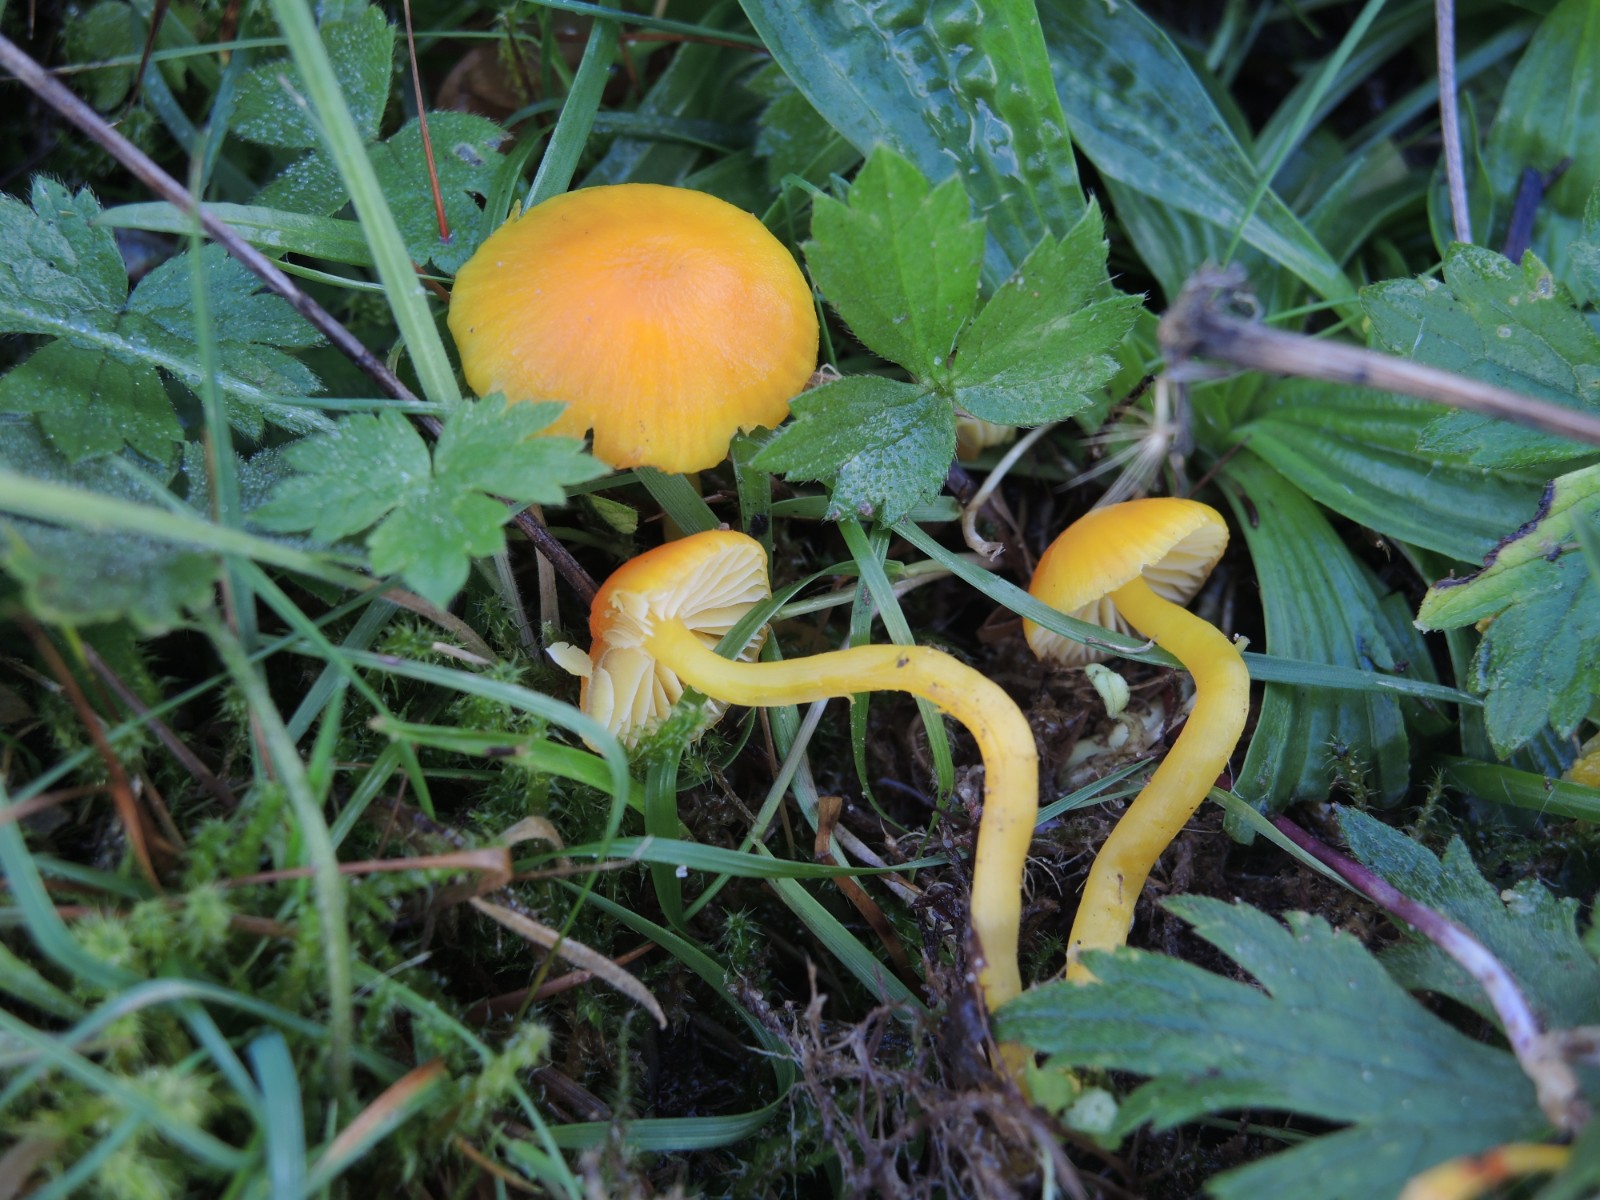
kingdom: Fungi
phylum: Basidiomycota
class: Agaricomycetes
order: Agaricales
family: Hygrophoraceae
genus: Hygrocybe
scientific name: Hygrocybe ceracea
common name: voksgul vokshat
